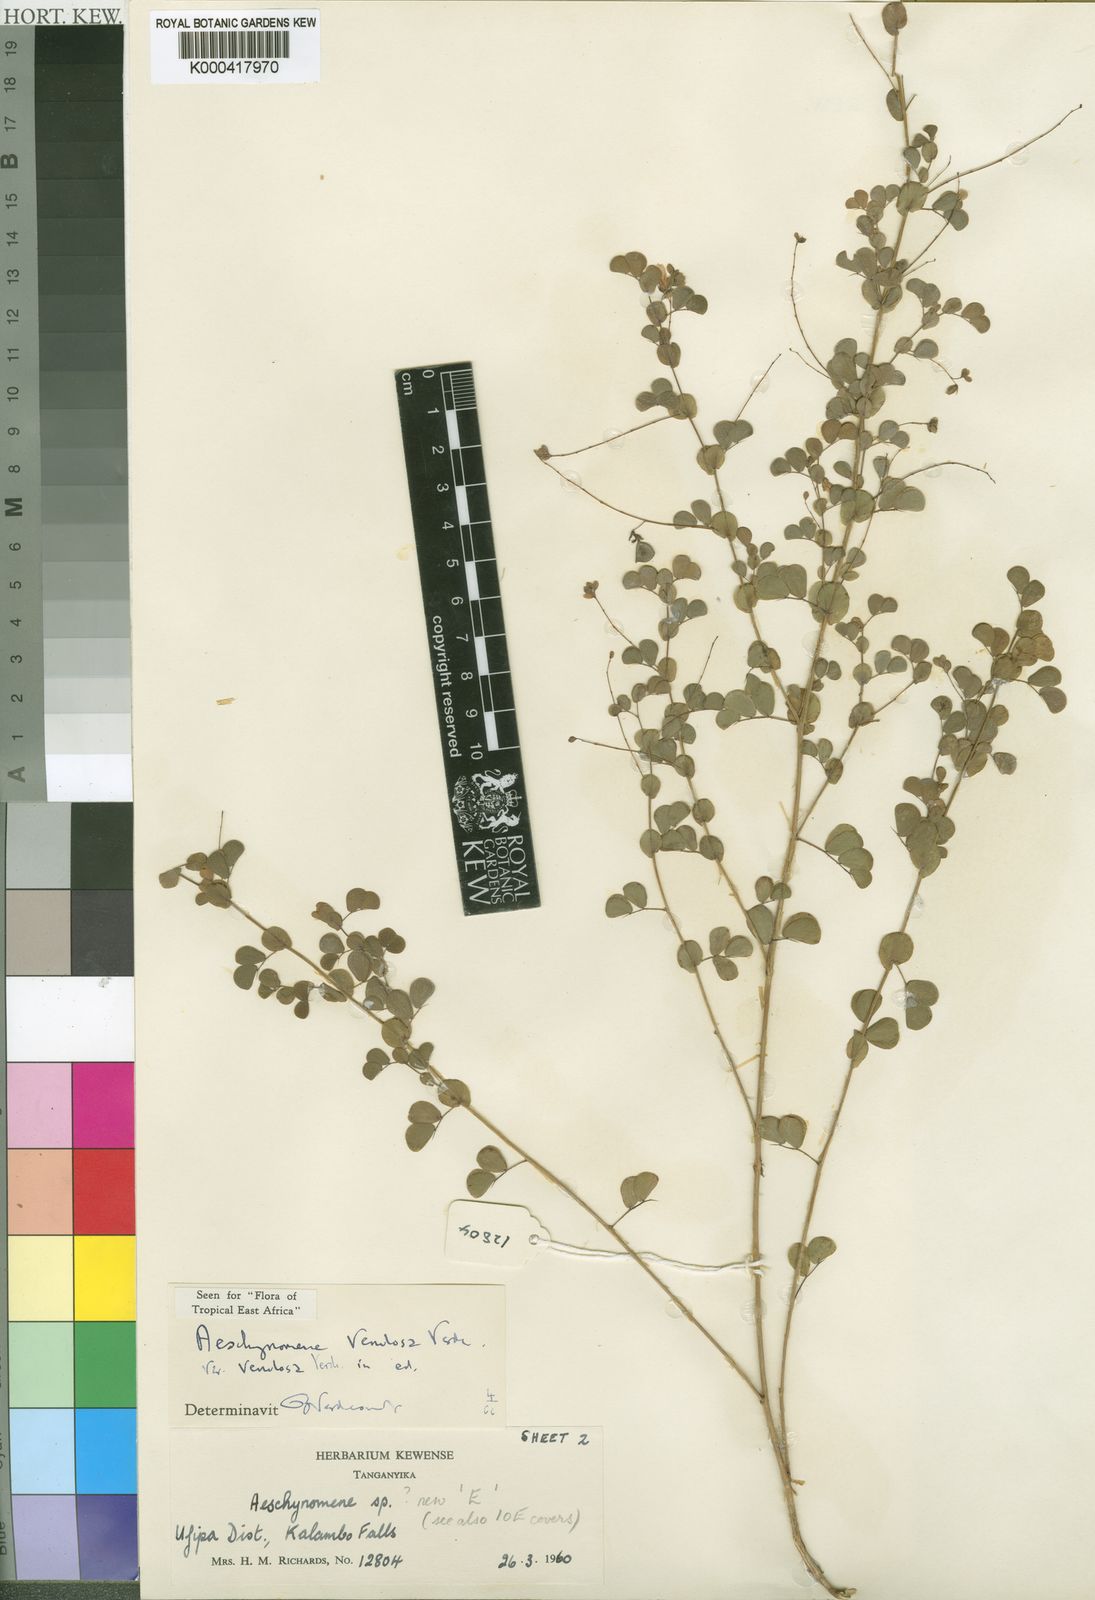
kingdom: Plantae
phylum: Tracheophyta
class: Magnoliopsida
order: Fabales
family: Fabaceae
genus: Aeschynomene
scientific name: Aeschynomene venulosa
